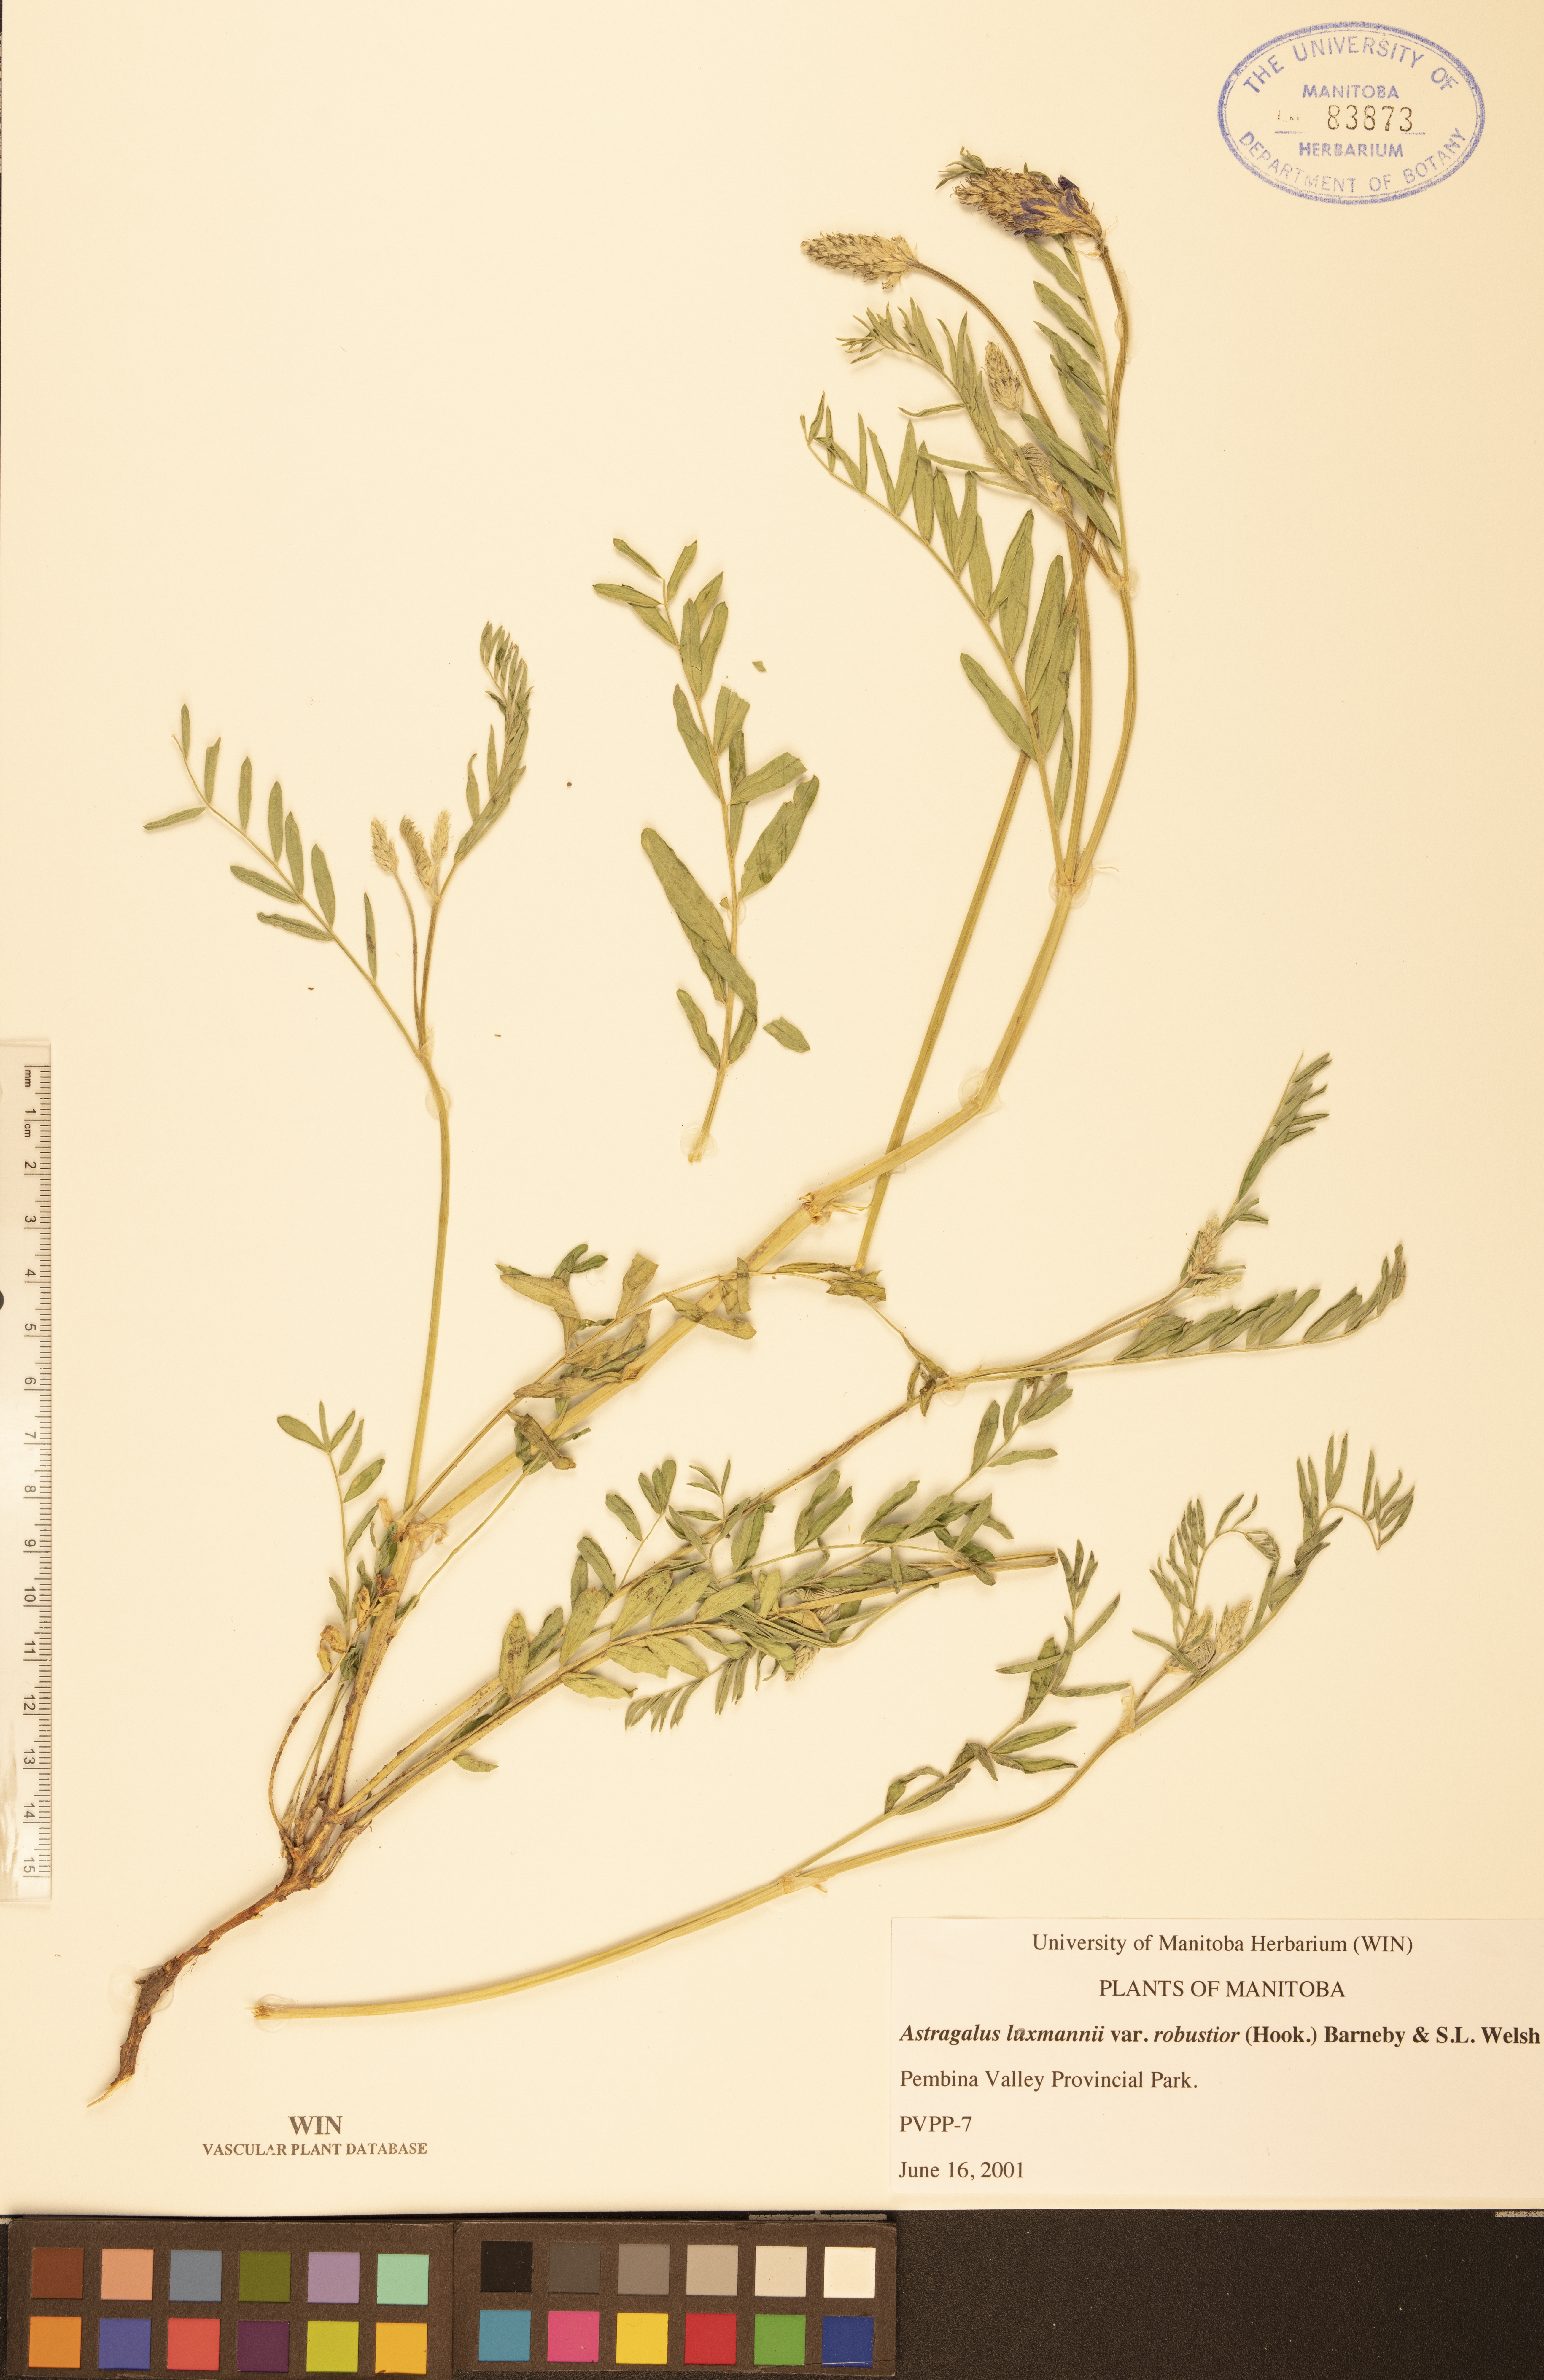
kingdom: Plantae
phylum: Tracheophyta
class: Magnoliopsida
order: Fabales
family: Fabaceae
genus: Astragalus
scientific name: Astragalus laxmannii
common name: Laxmann's milk-vetch
